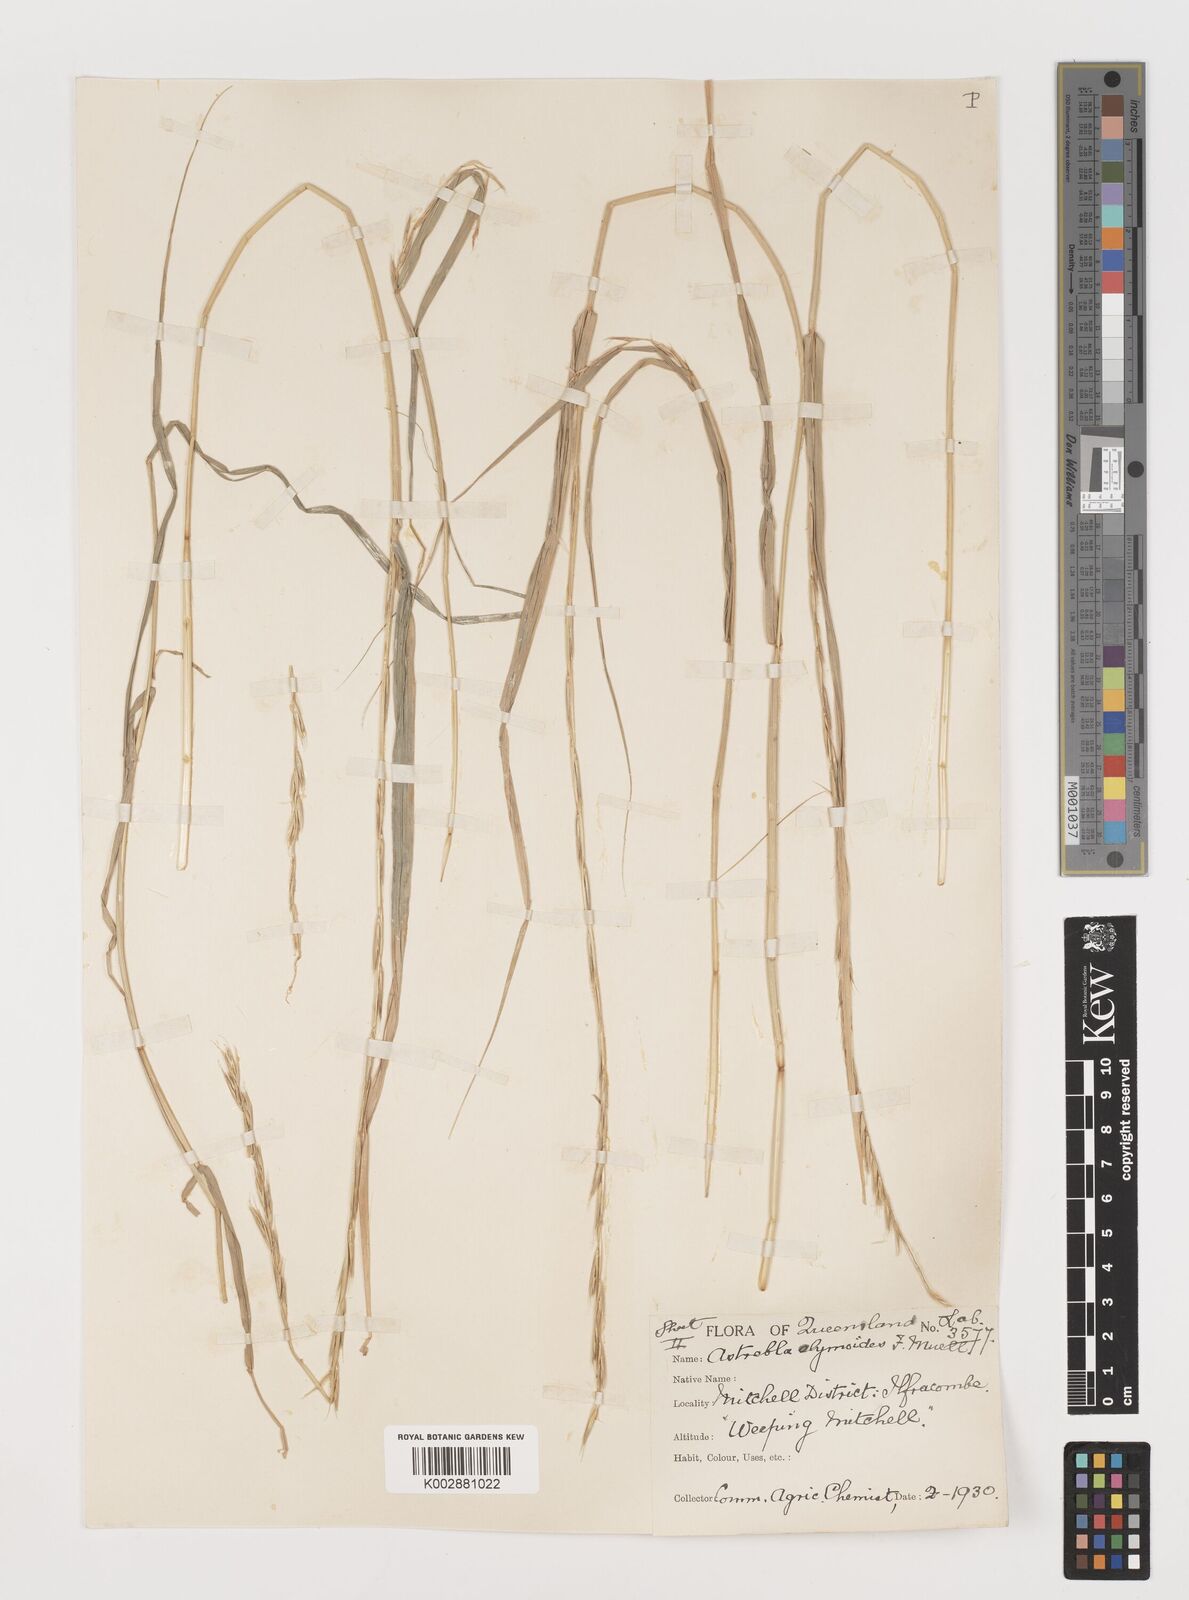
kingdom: Plantae
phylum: Tracheophyta
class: Liliopsida
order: Poales
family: Poaceae
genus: Astrebla
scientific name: Astrebla elymoides
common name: Hoop mitchell grass
